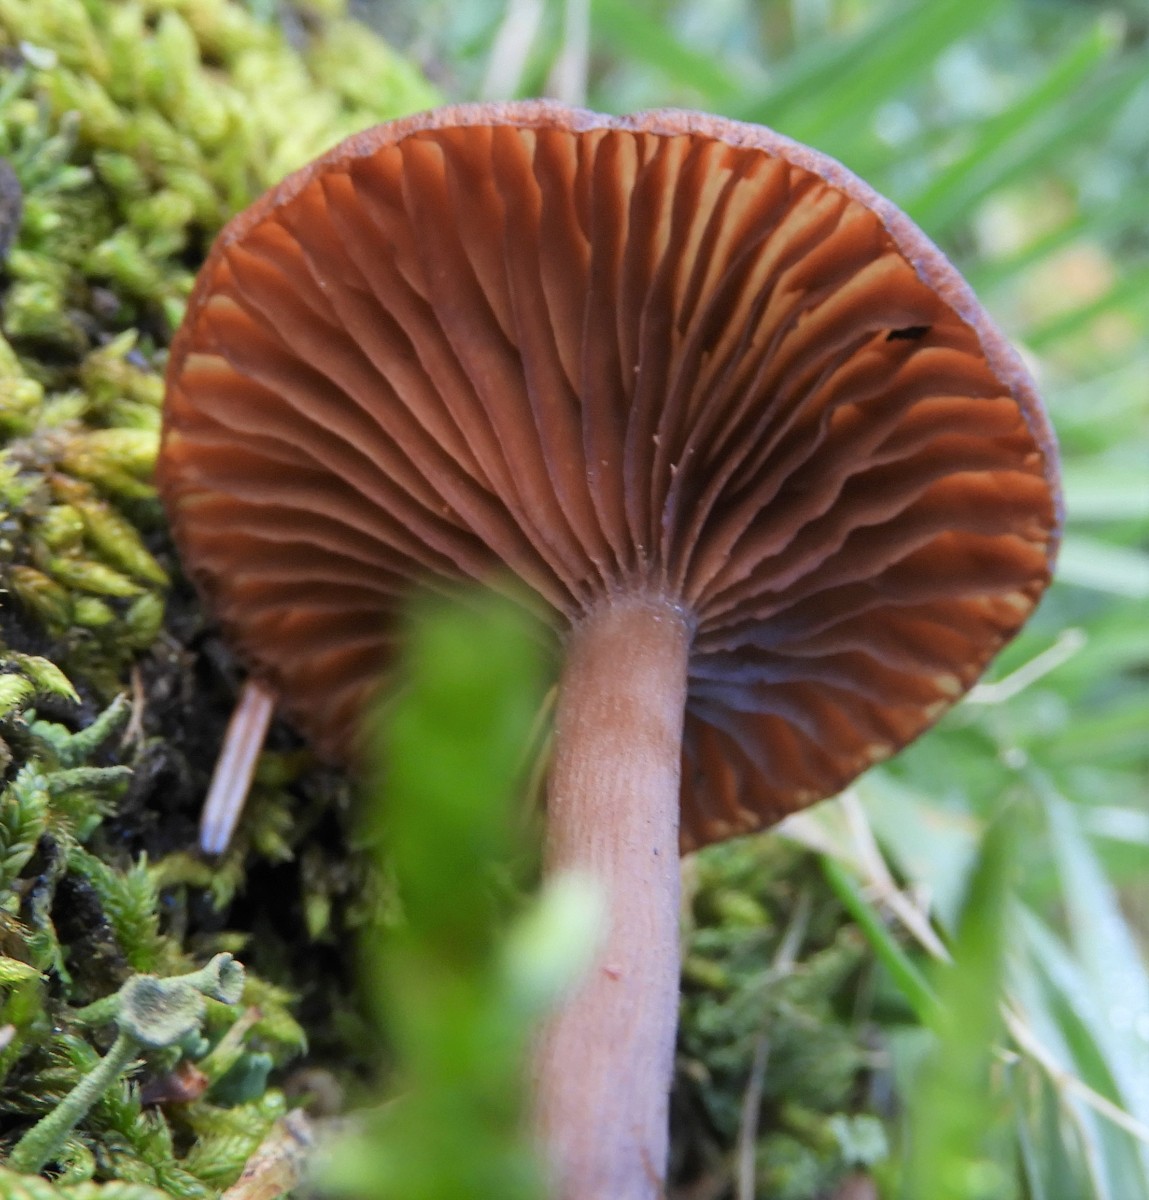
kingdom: Fungi
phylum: Basidiomycota
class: Agaricomycetes
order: Agaricales
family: Pseudoclitocybaceae
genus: Pseudoclitocybe
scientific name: Pseudoclitocybe cyathiformis
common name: almindelig bægertragthat
